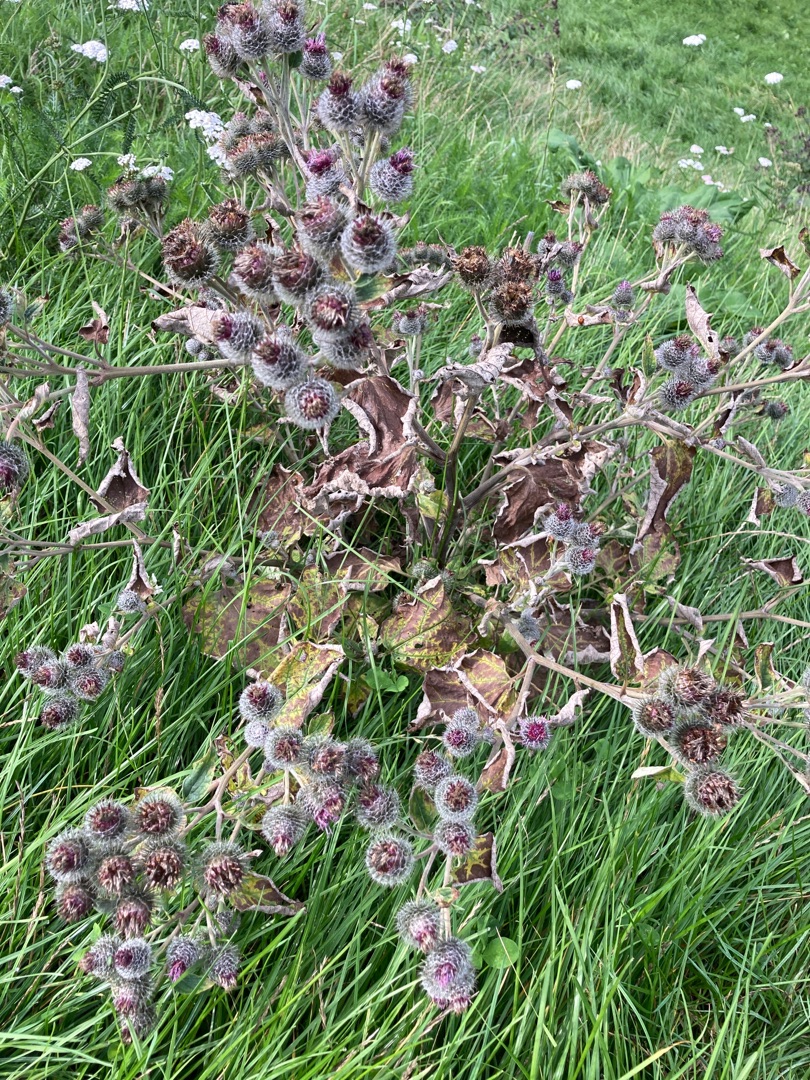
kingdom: Plantae
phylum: Tracheophyta
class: Magnoliopsida
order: Asterales
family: Asteraceae
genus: Arctium
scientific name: Arctium tomentosum
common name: Filtet burre
